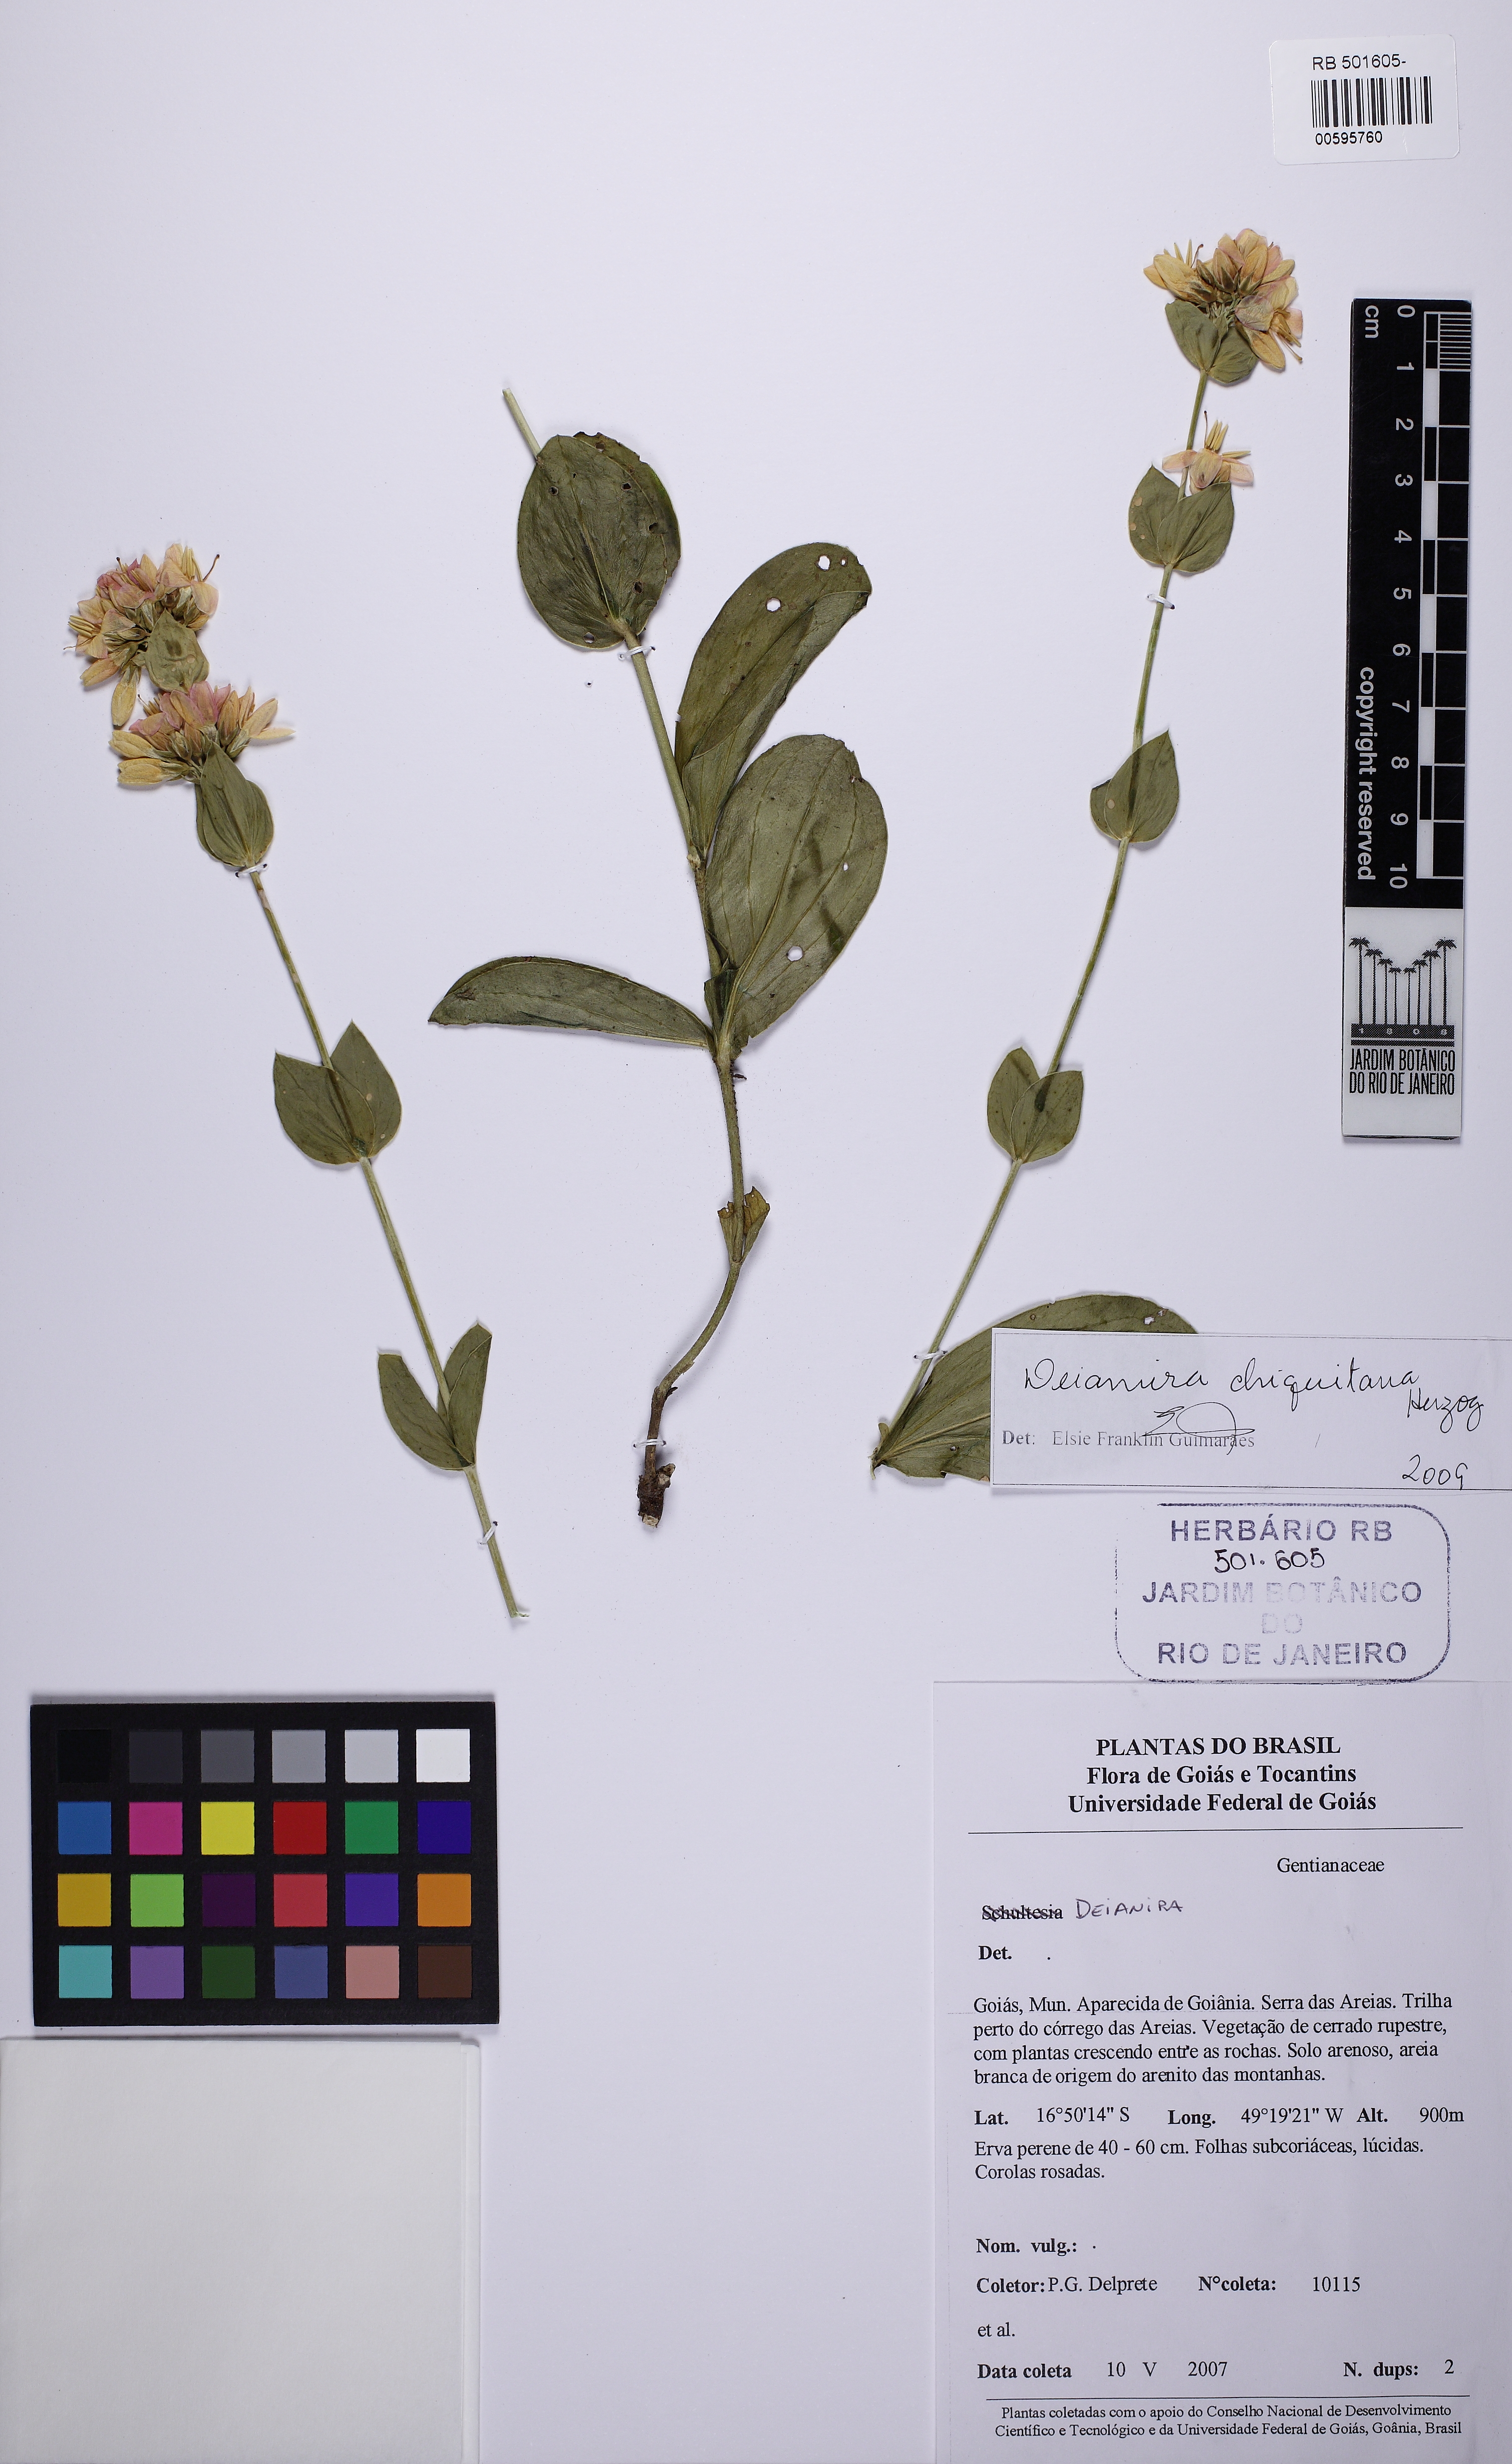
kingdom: Plantae
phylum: Tracheophyta
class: Magnoliopsida
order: Gentianales
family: Gentianaceae
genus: Deianira
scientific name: Deianira chiquitana
